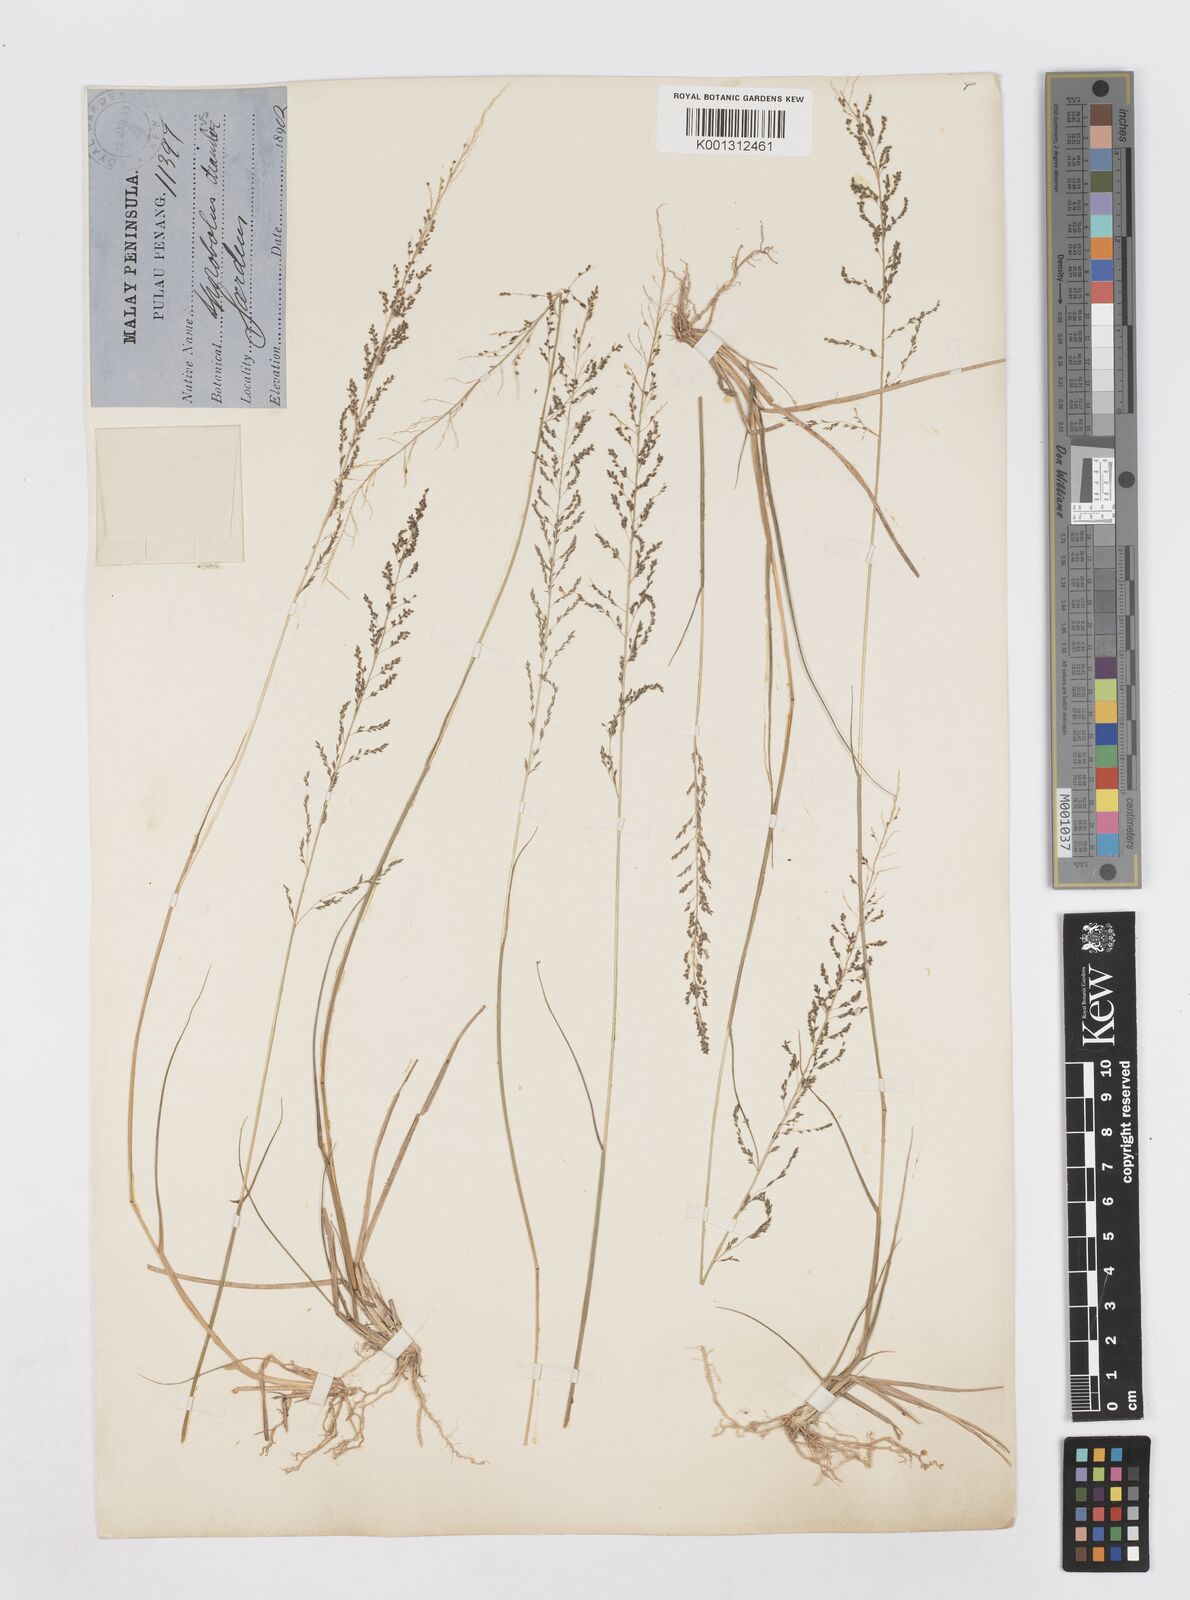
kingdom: Plantae
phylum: Tracheophyta
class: Liliopsida
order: Poales
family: Poaceae
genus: Sporobolus
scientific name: Sporobolus diandrus
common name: Tussock dropseed
